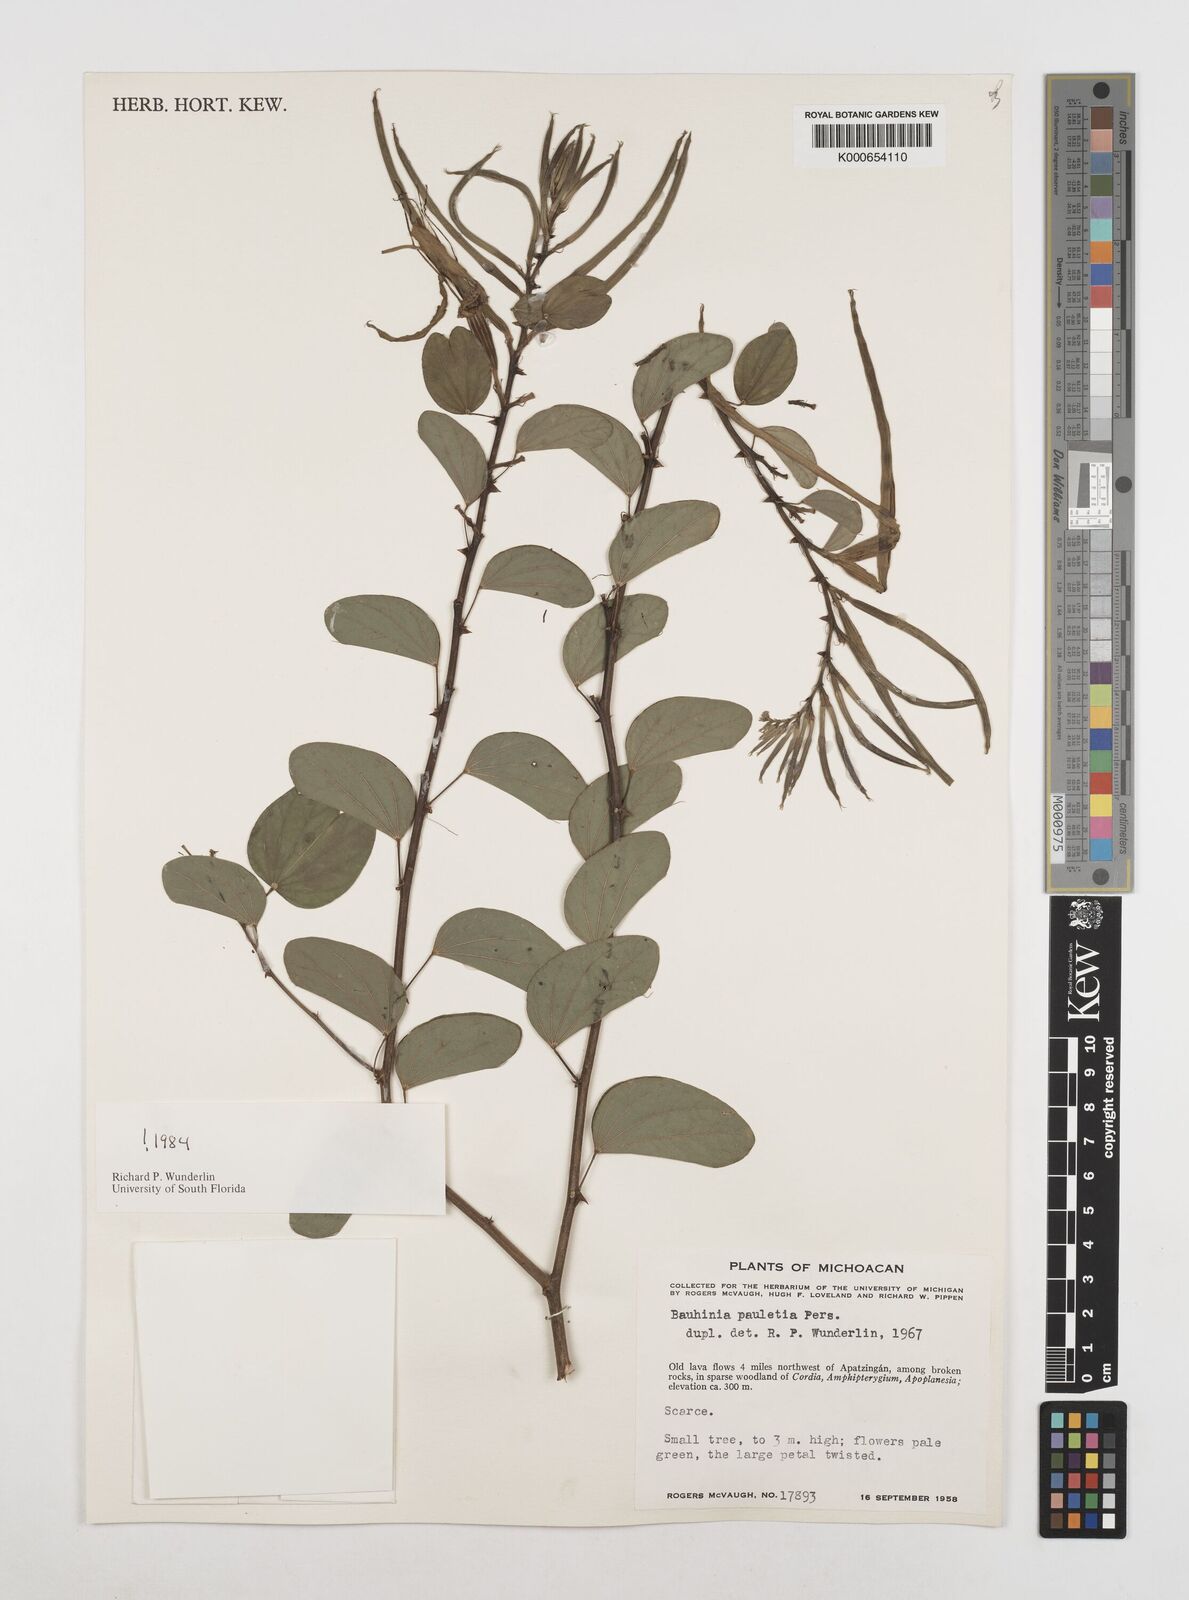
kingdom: Plantae
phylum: Tracheophyta
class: Magnoliopsida
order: Fabales
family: Fabaceae
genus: Bauhinia
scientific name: Bauhinia pauletia
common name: Railway-fence bauhinia
